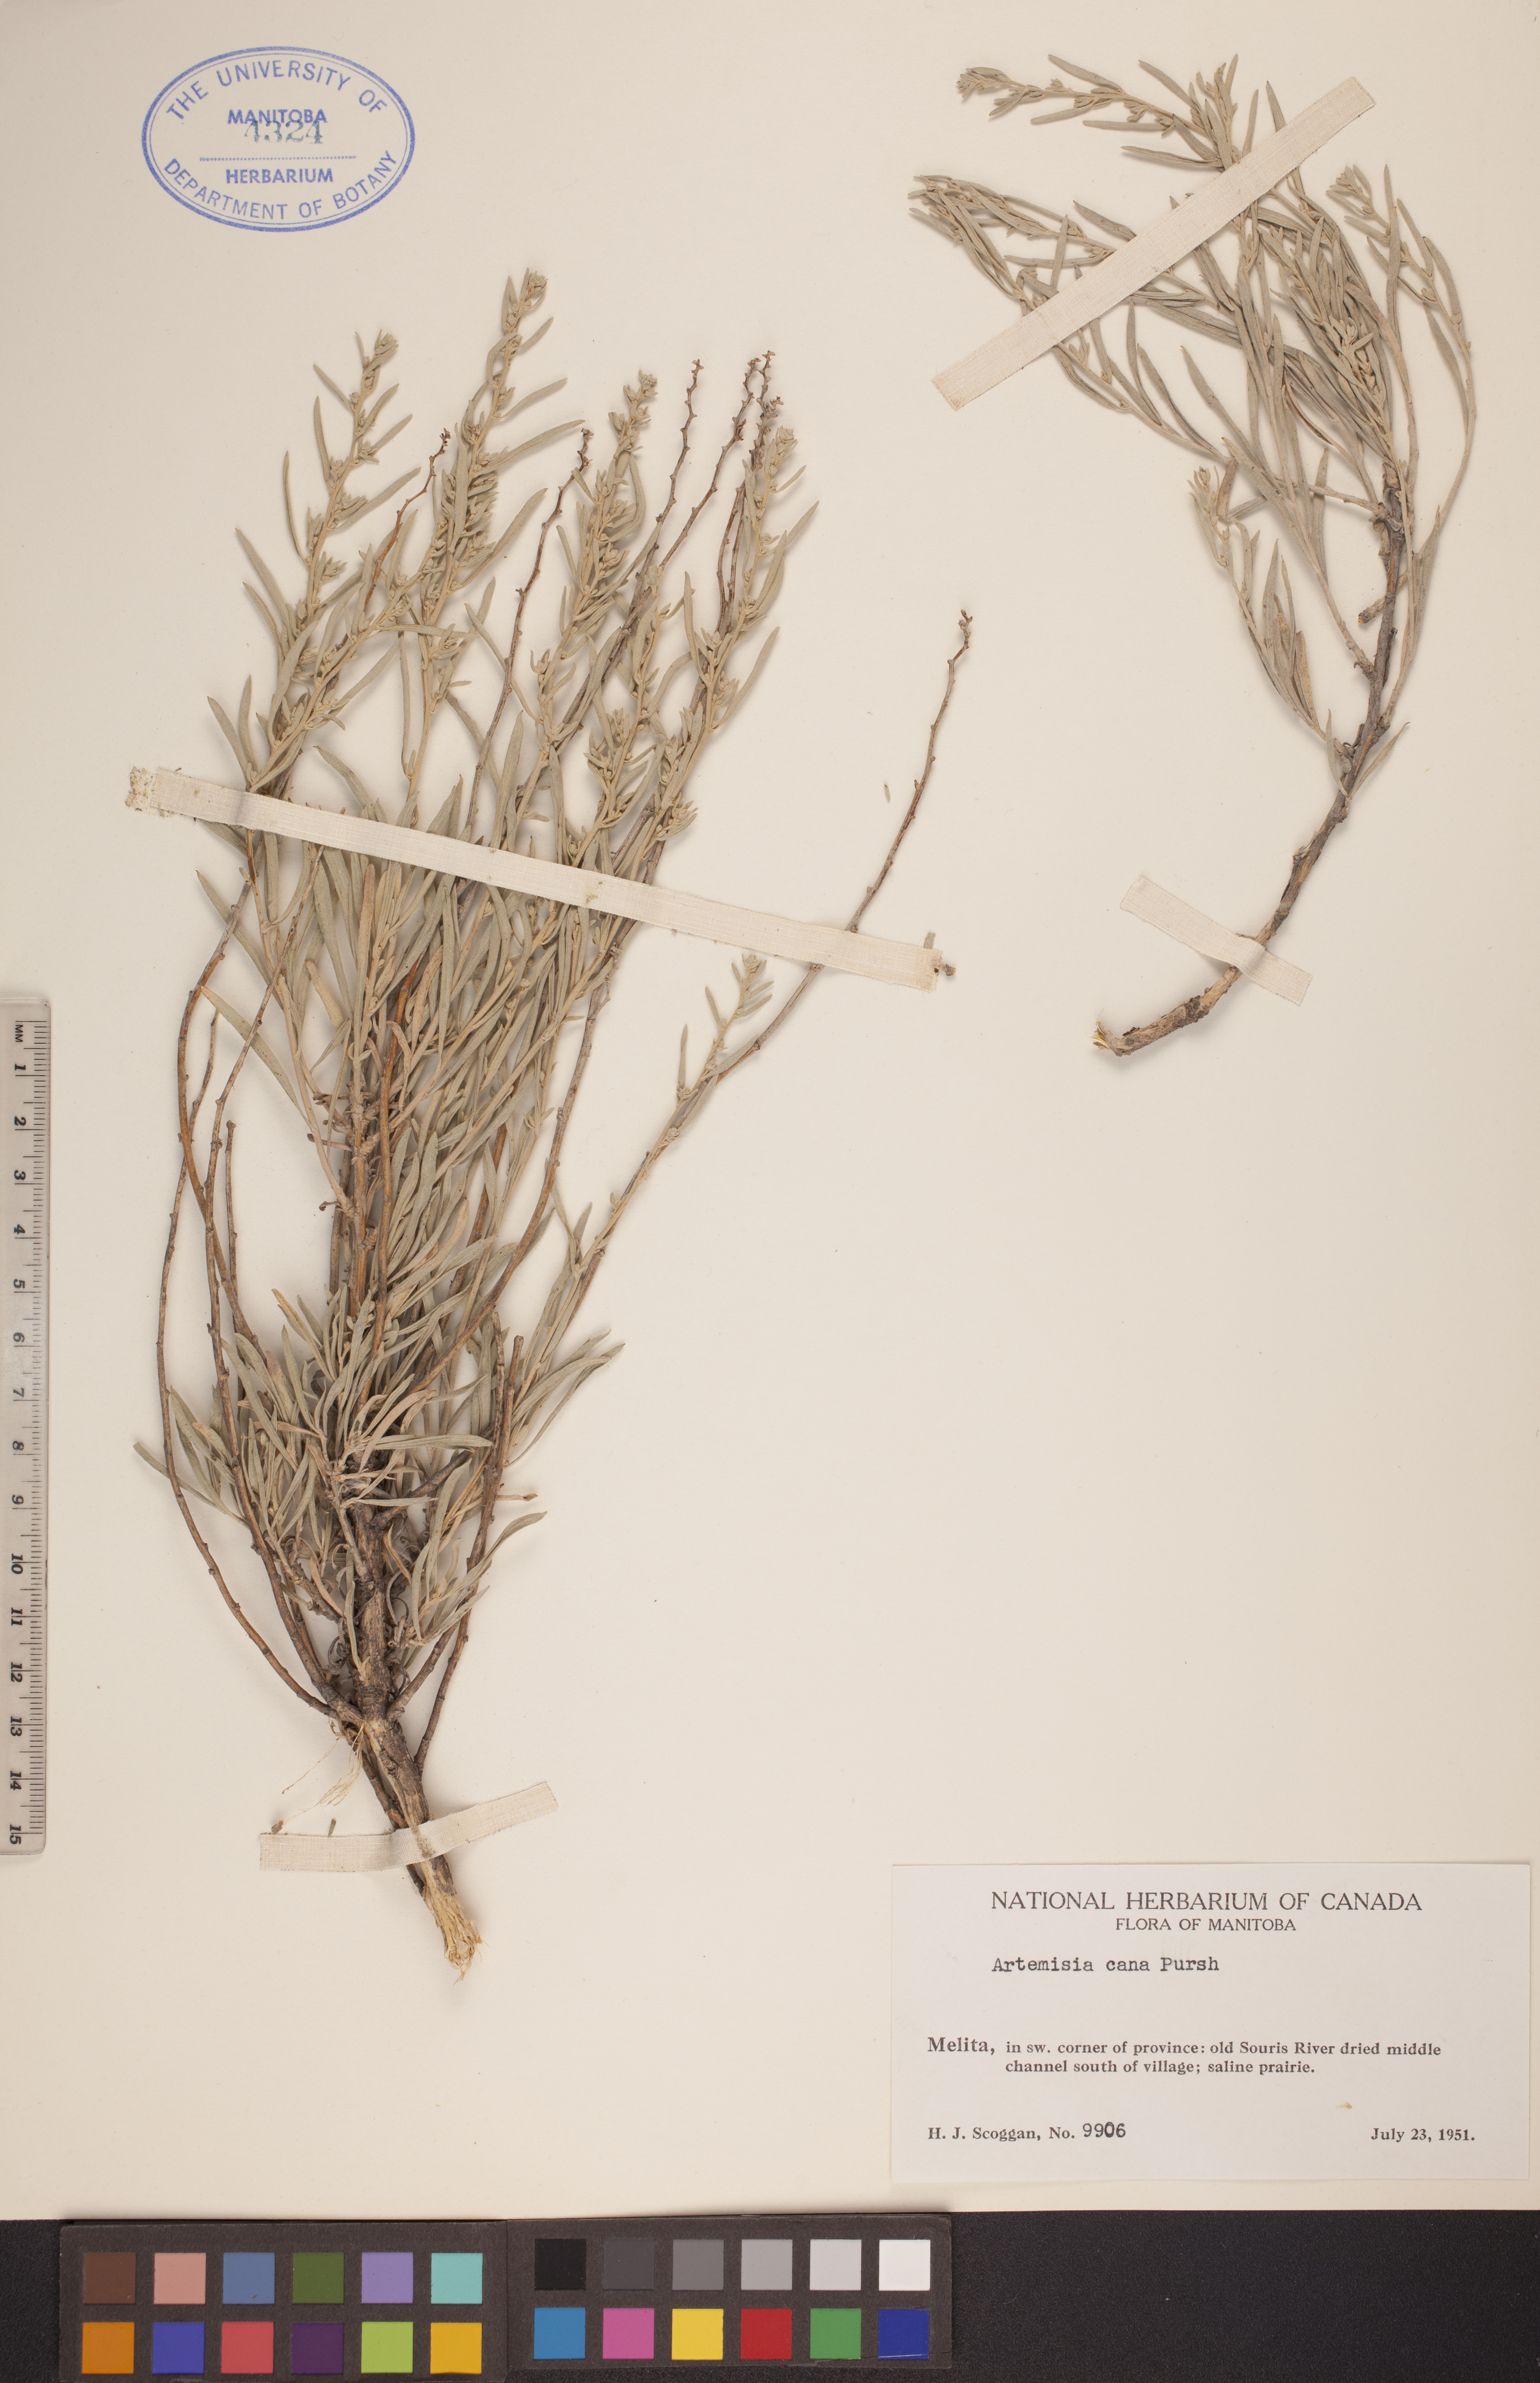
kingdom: Plantae
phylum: Tracheophyta
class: Magnoliopsida
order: Asterales
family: Asteraceae
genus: Artemisia
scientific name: Artemisia cana
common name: Silver sagebrush
